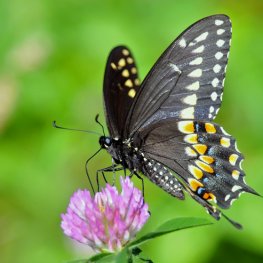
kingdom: Animalia
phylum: Arthropoda
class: Insecta
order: Lepidoptera
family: Papilionidae
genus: Papilio
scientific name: Papilio polyxenes
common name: Black Swallowtail
